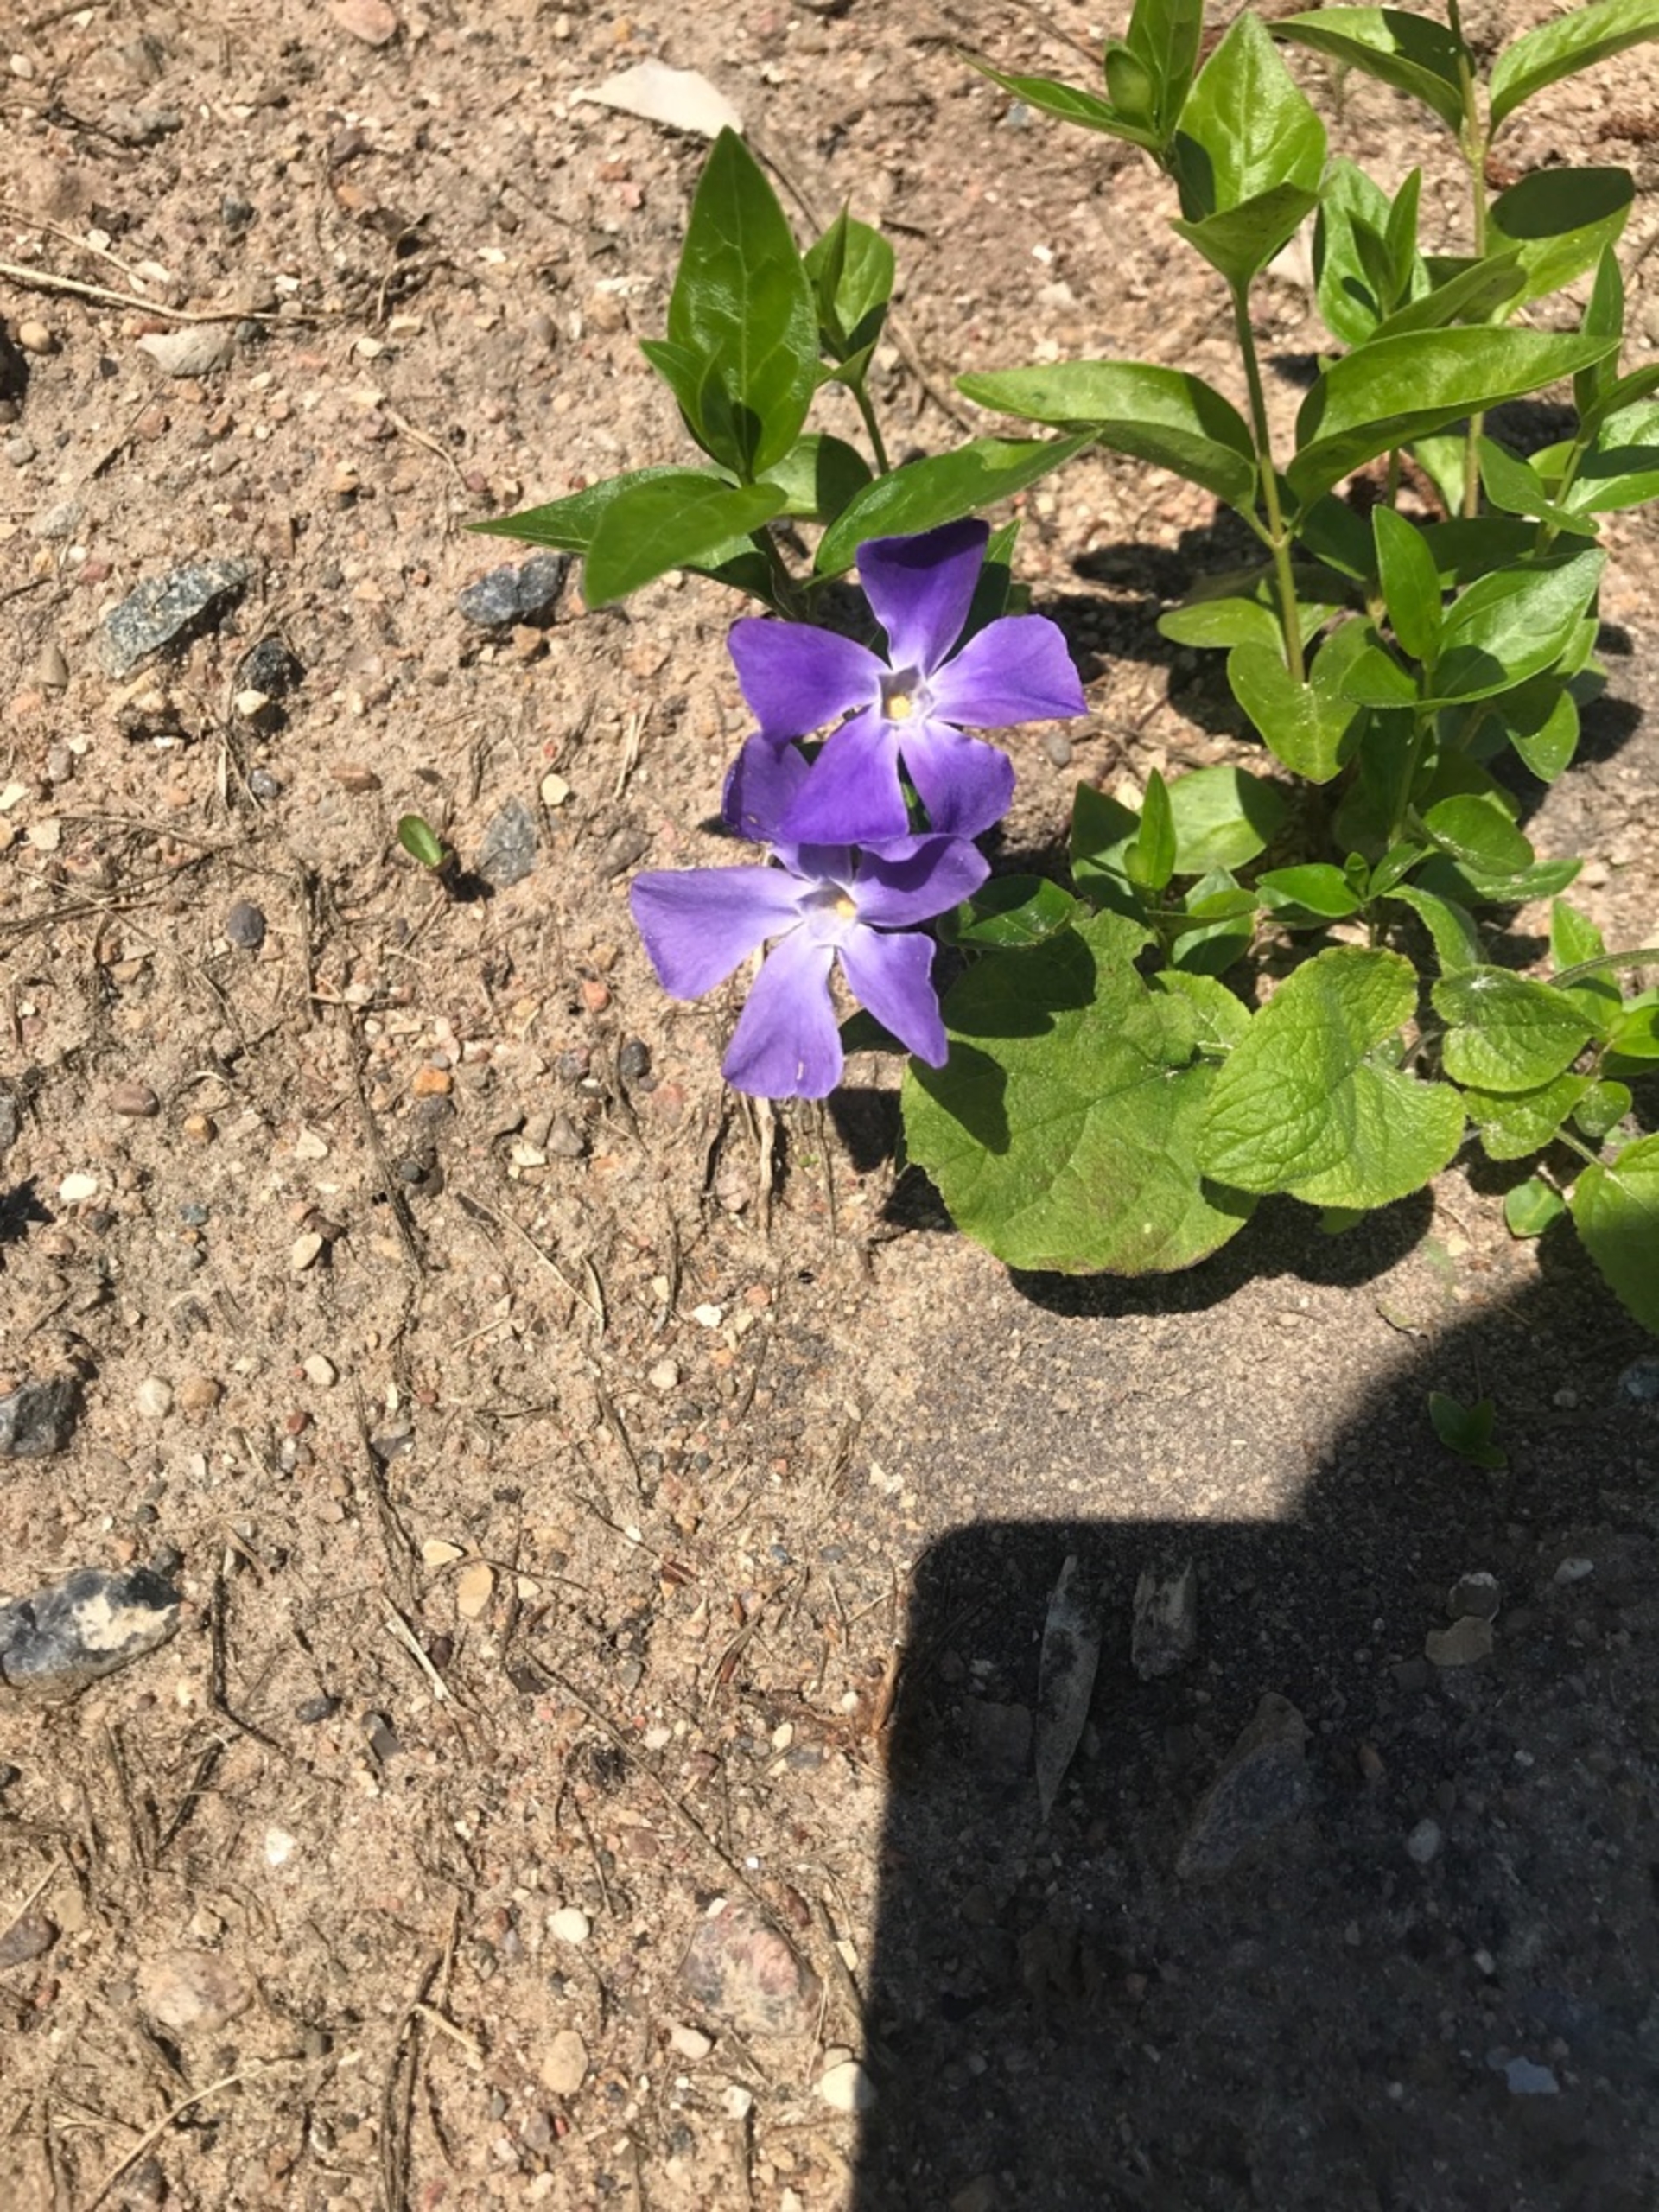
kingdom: Plantae
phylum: Tracheophyta
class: Magnoliopsida
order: Gentianales
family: Apocynaceae
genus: Vinca
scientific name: Vinca major
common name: Stor singrøn
